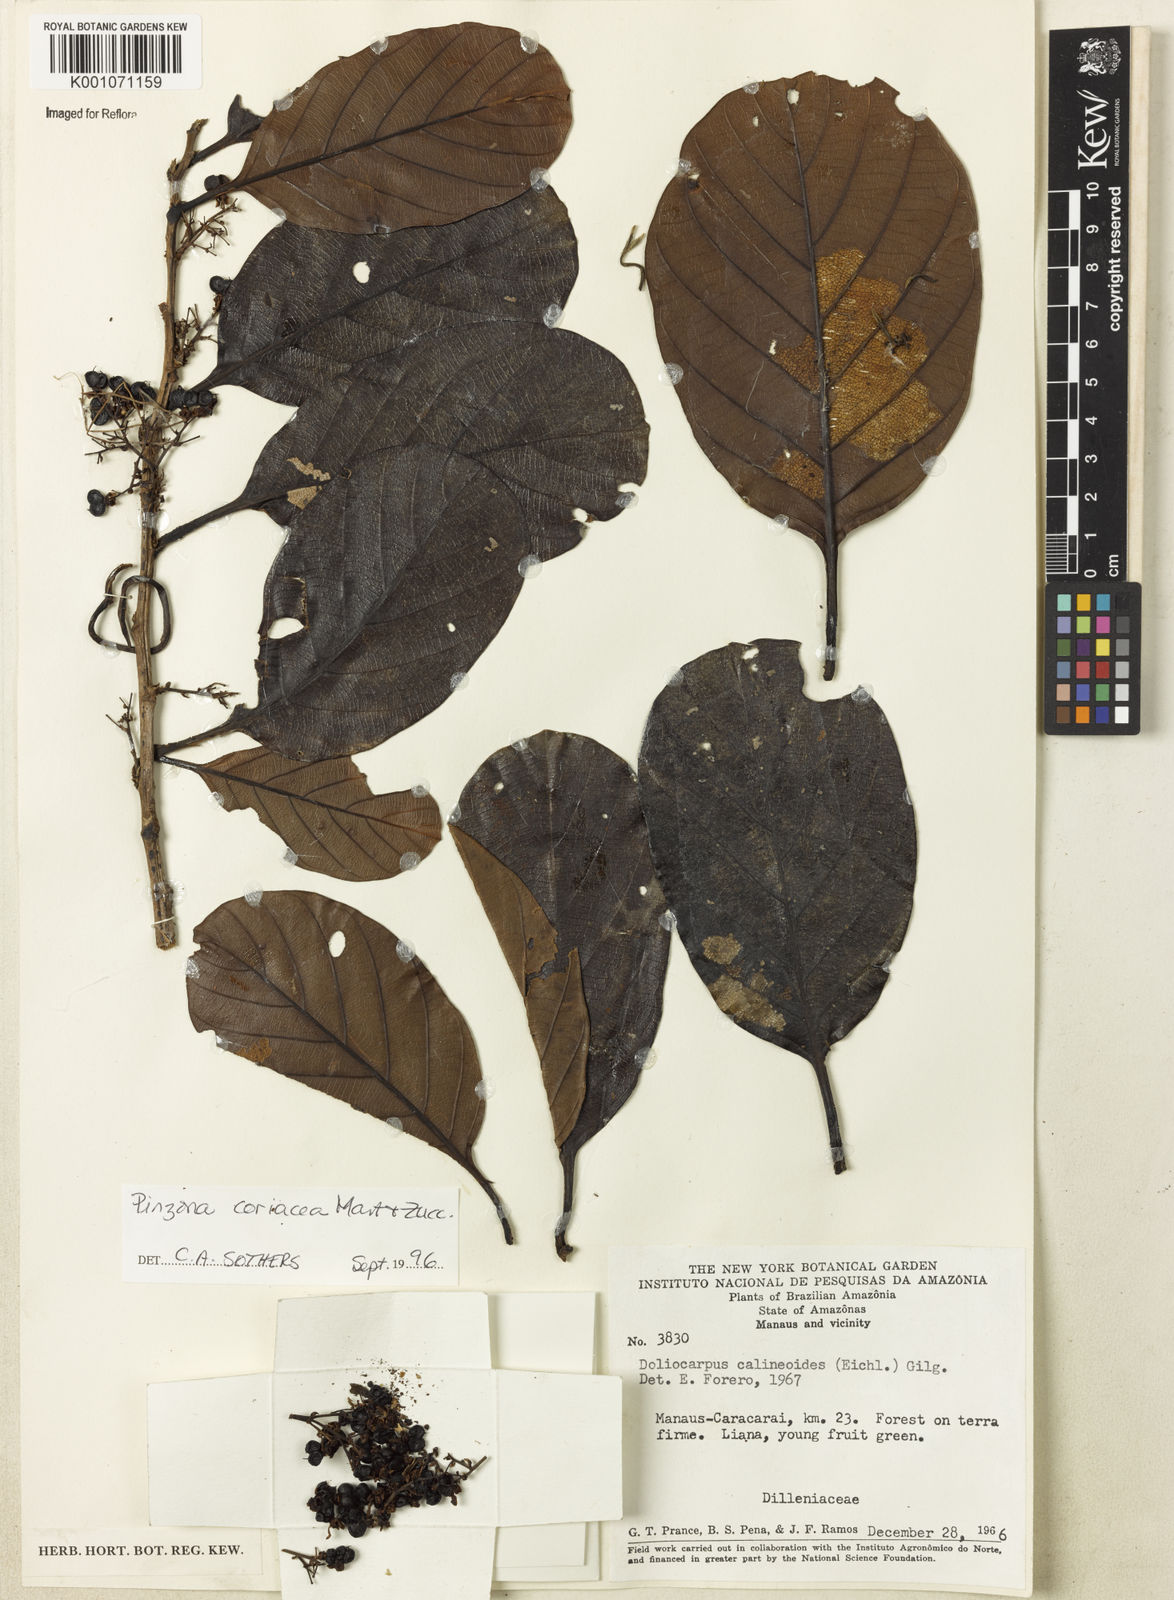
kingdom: Plantae
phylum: Tracheophyta
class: Magnoliopsida
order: Dilleniales
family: Dilleniaceae
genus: Pinzona
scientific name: Pinzona coriacea
